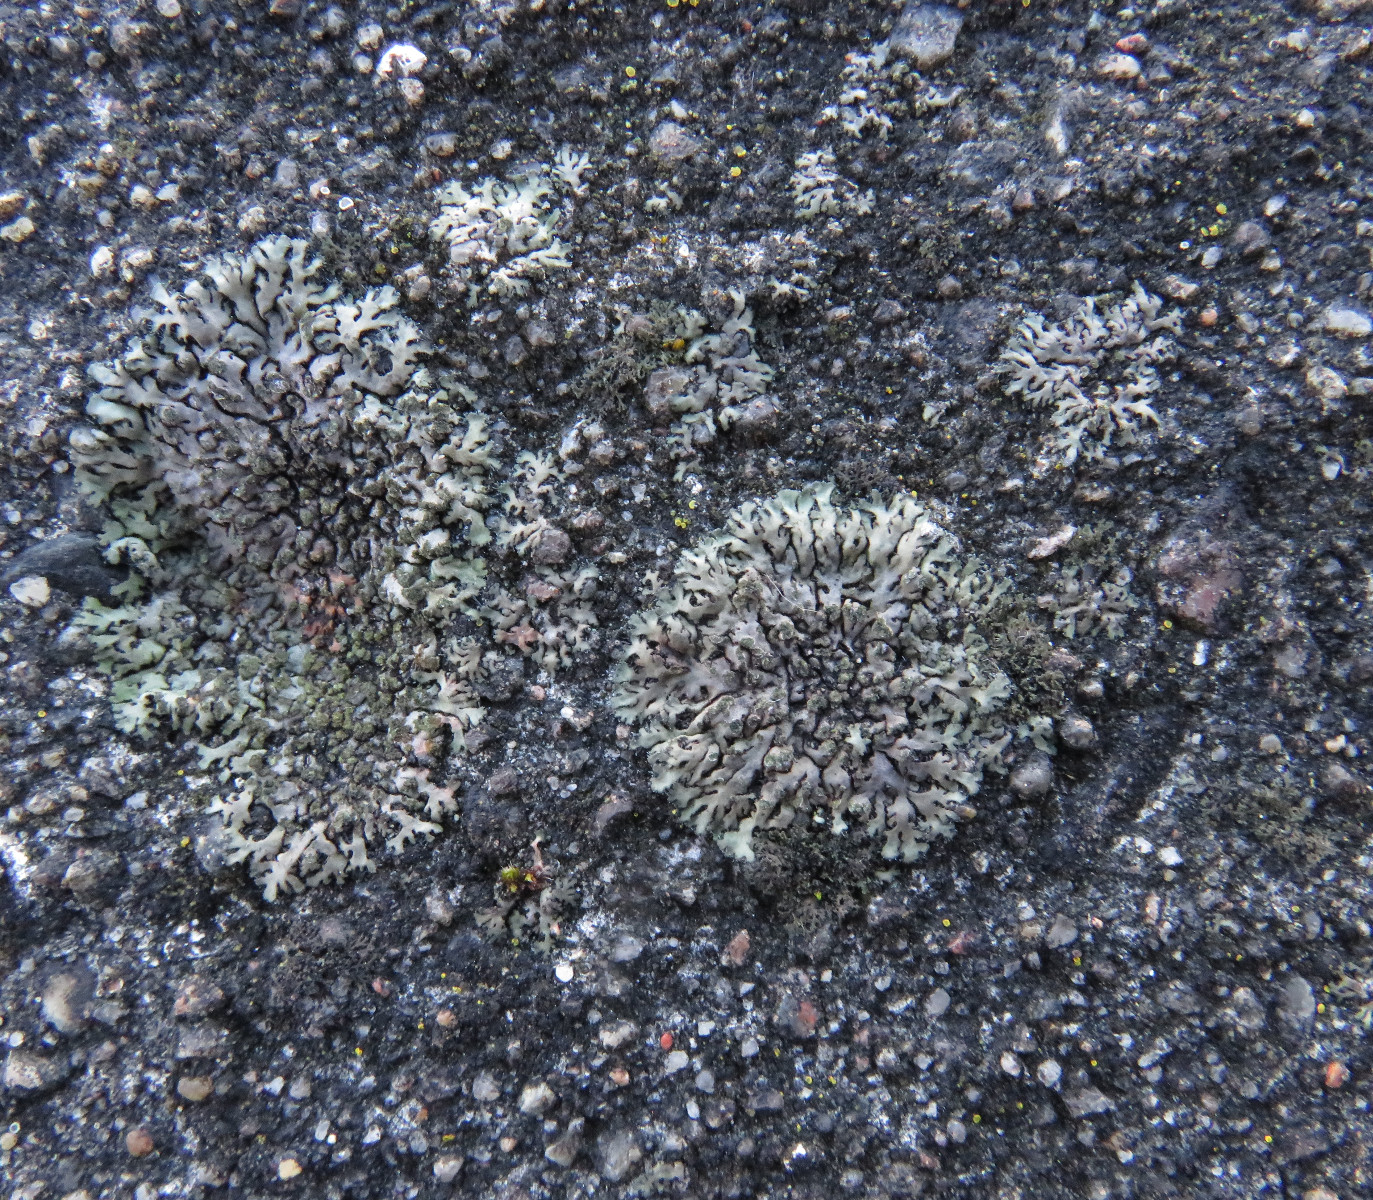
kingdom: Fungi
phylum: Ascomycota
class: Lecanoromycetes
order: Caliciales
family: Physciaceae
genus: Phaeophyscia
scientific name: Phaeophyscia orbicularis
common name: grågrøn rosetlav
